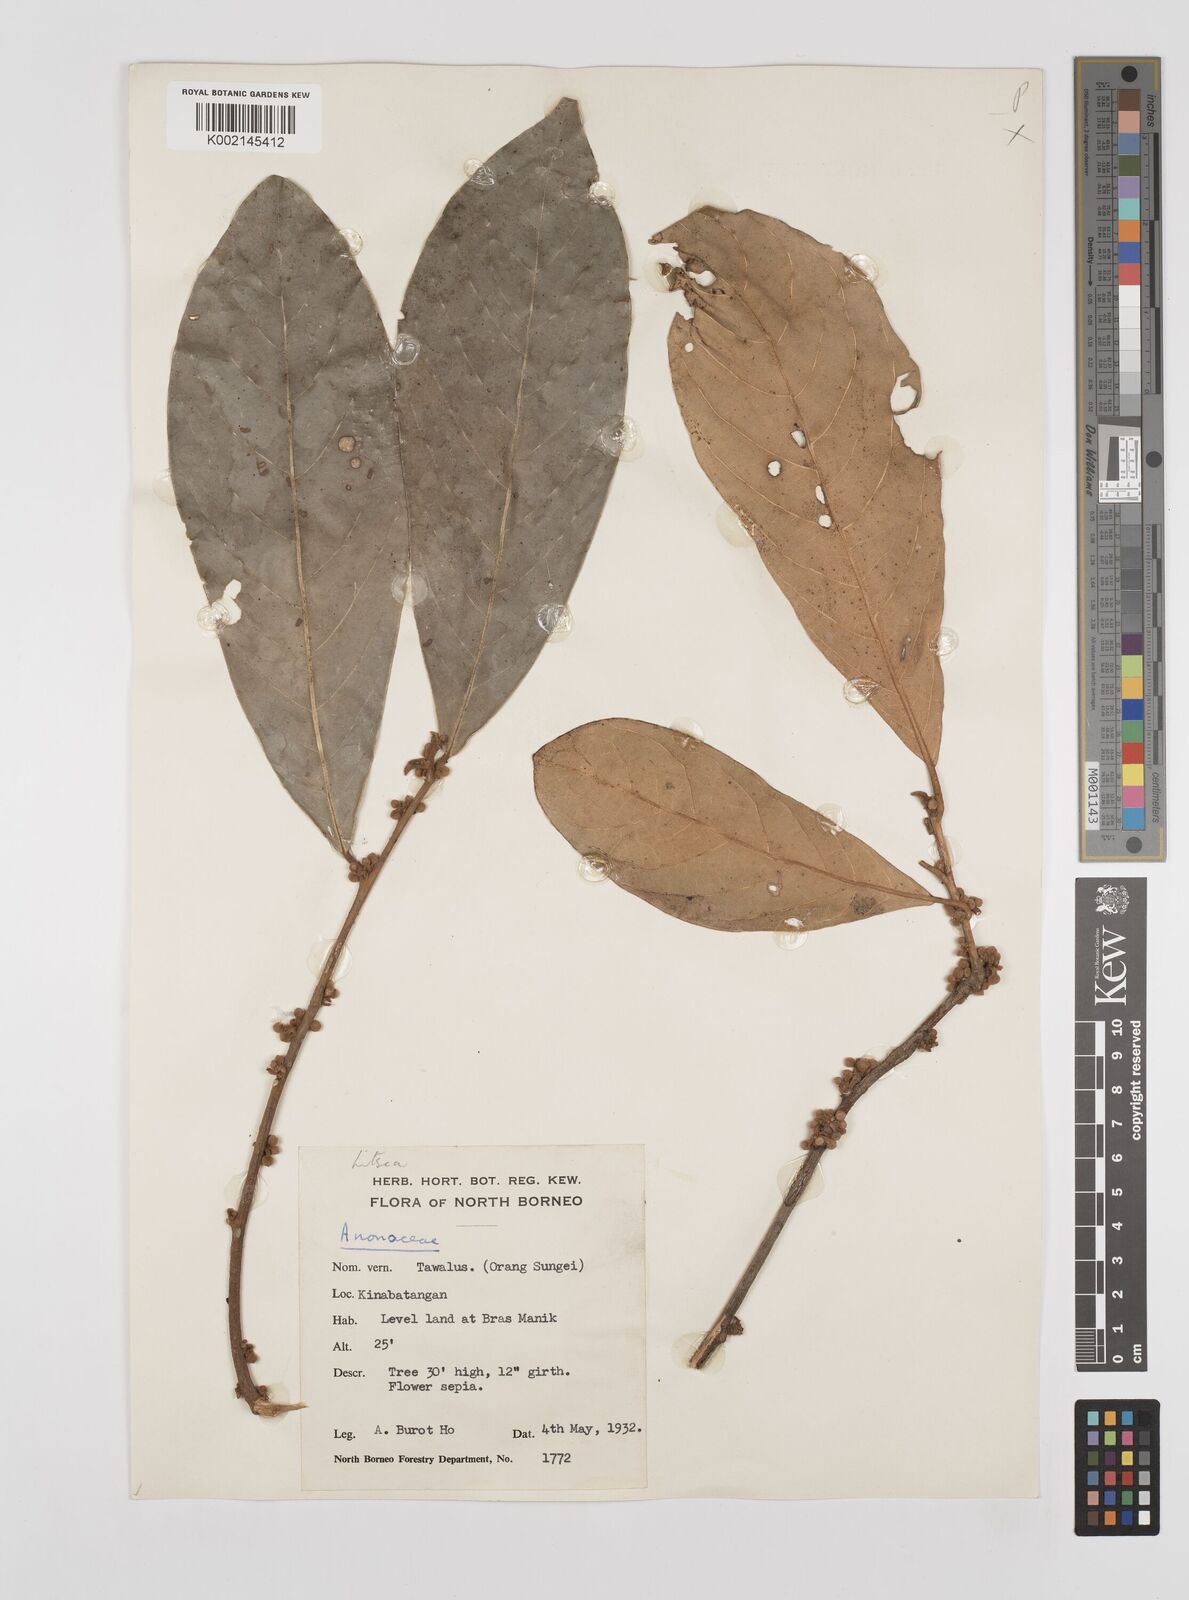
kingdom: Plantae
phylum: Tracheophyta
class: Magnoliopsida
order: Laurales
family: Lauraceae
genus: Litsea
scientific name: Litsea
